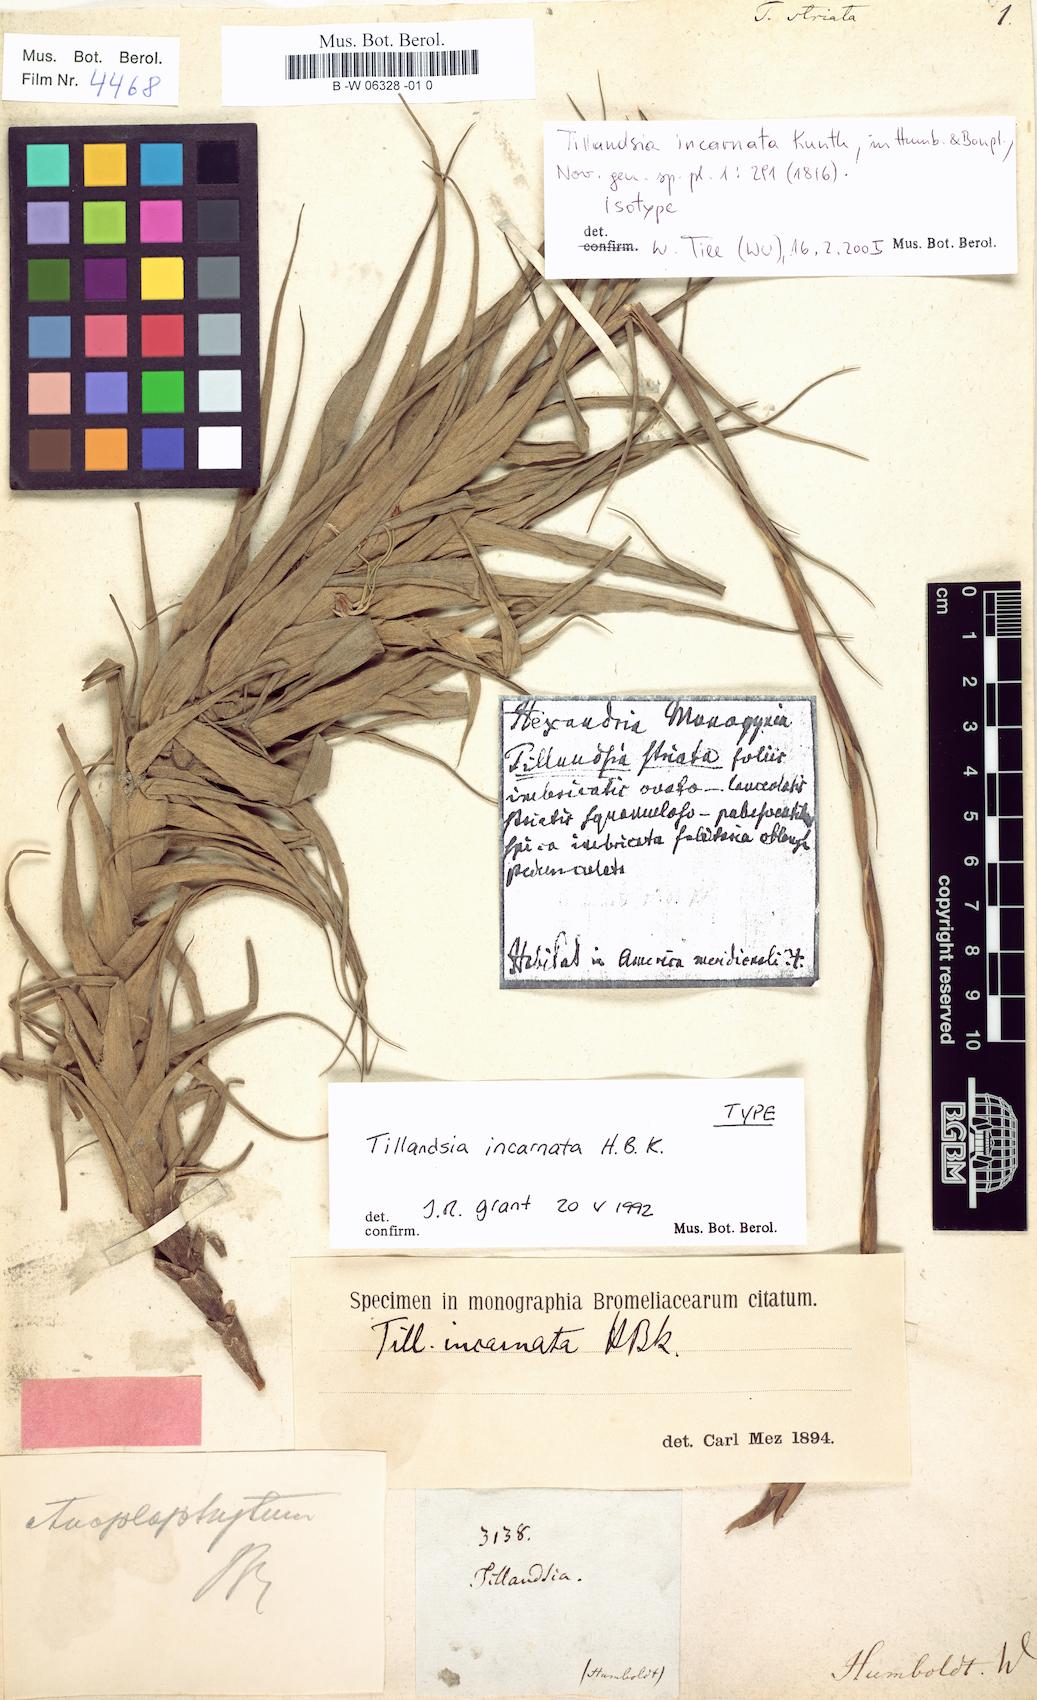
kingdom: Plantae
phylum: Tracheophyta
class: Liliopsida
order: Poales
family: Bromeliaceae
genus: Tillandsia
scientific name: Tillandsia incarnata
